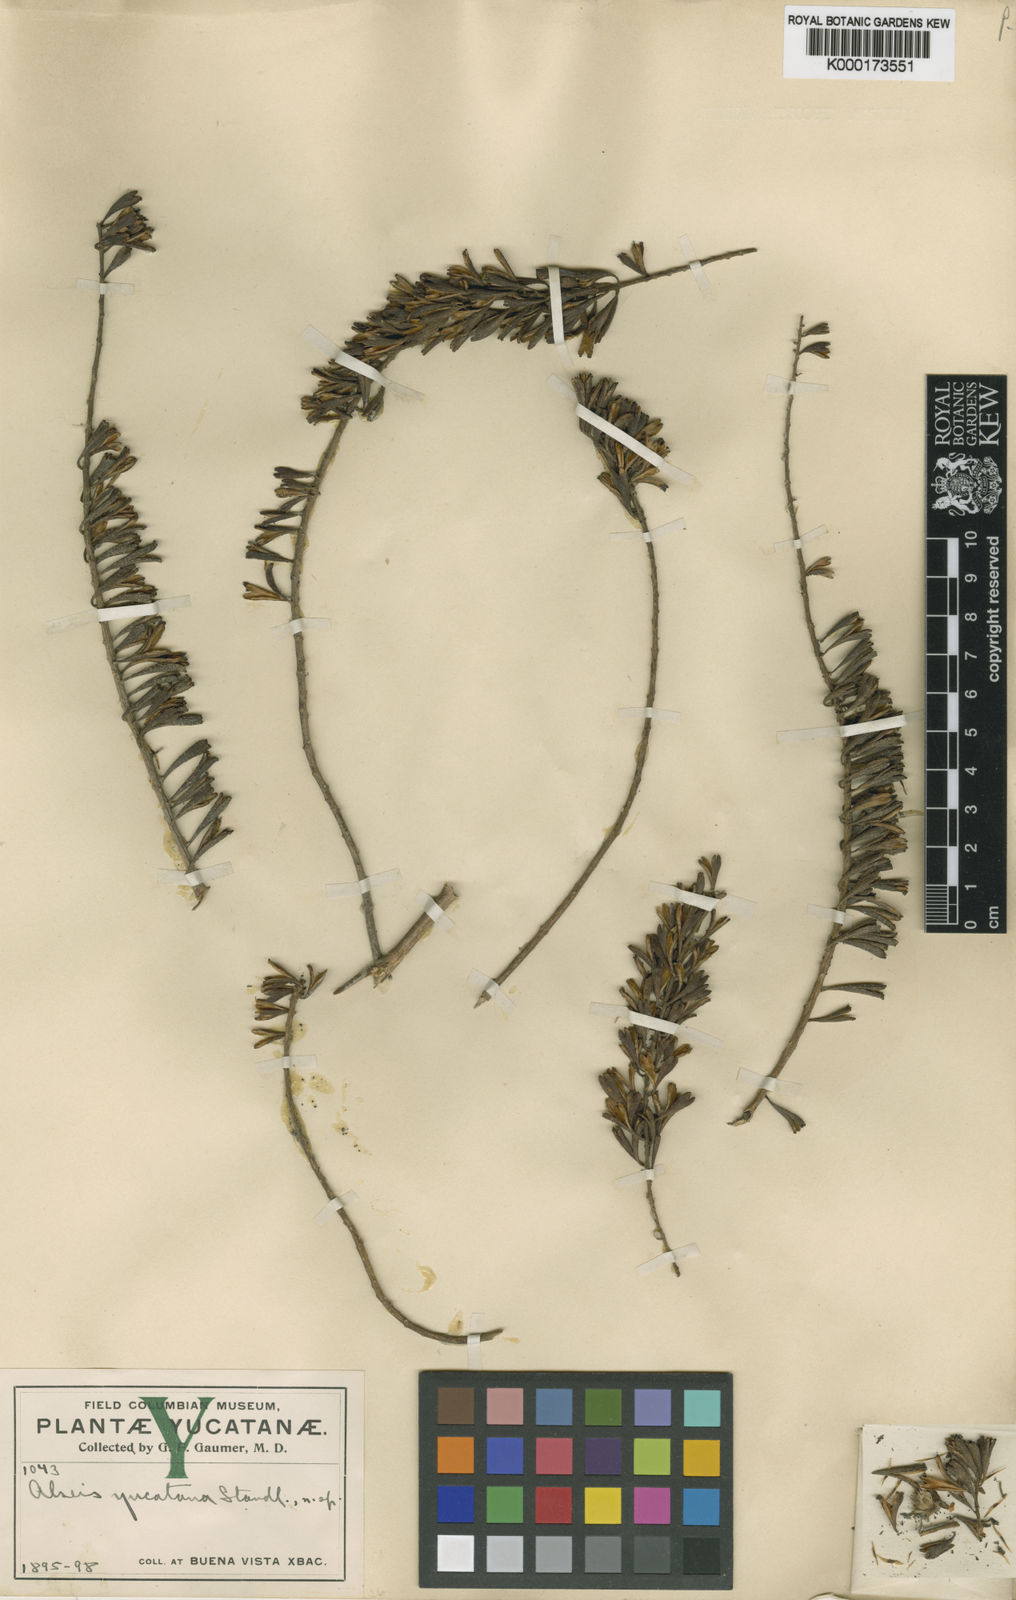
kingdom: Plantae
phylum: Tracheophyta
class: Magnoliopsida
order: Gentianales
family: Rubiaceae
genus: Alseis
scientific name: Alseis yucatanensis
